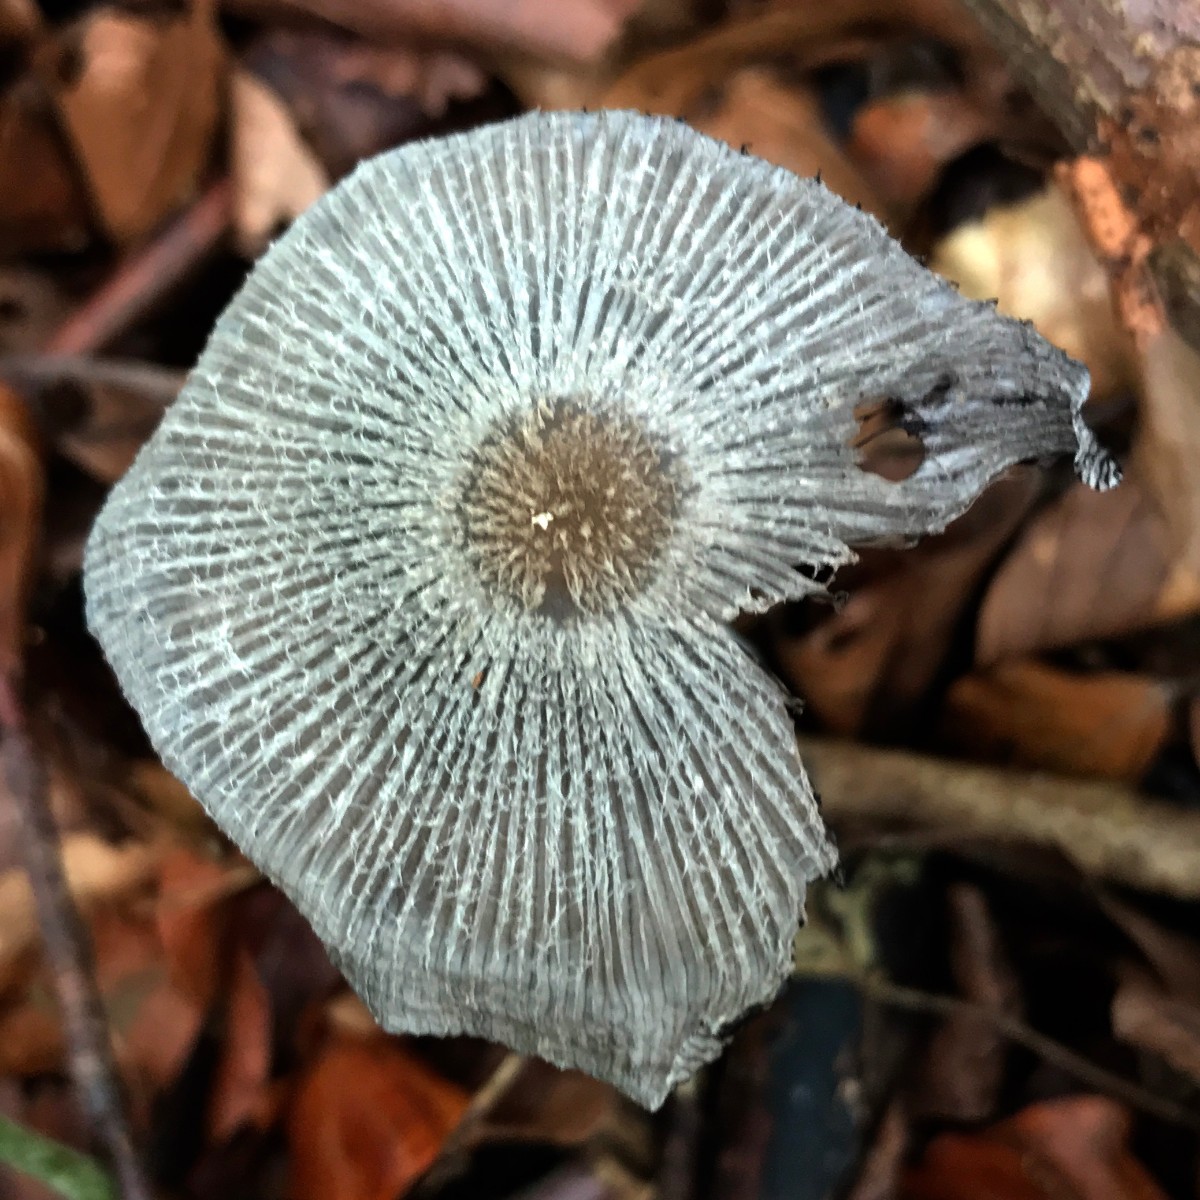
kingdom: Fungi
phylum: Basidiomycota
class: Agaricomycetes
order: Agaricales
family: Psathyrellaceae
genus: Coprinopsis
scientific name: Coprinopsis lagopus
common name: dunstokket blækhat
